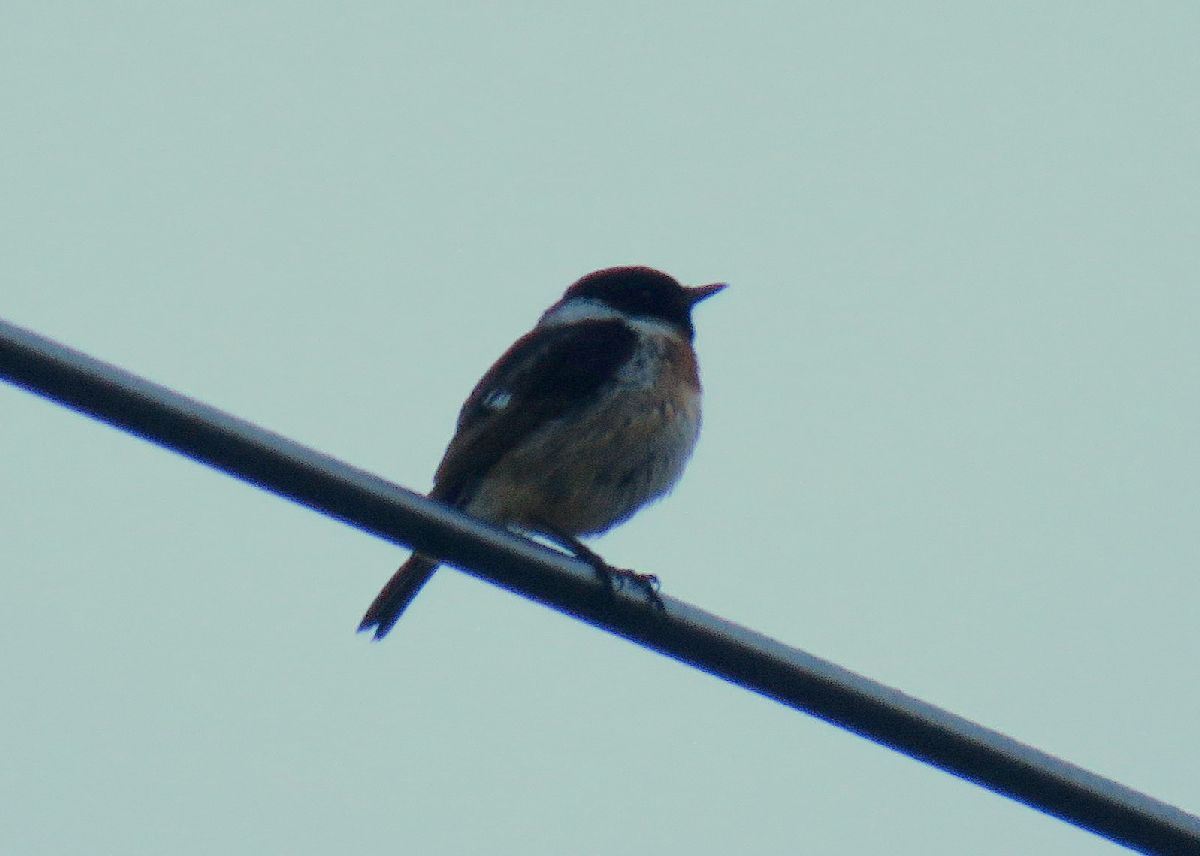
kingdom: Animalia
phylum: Chordata
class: Aves
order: Passeriformes
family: Muscicapidae
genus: Saxicola
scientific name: Saxicola maurus
